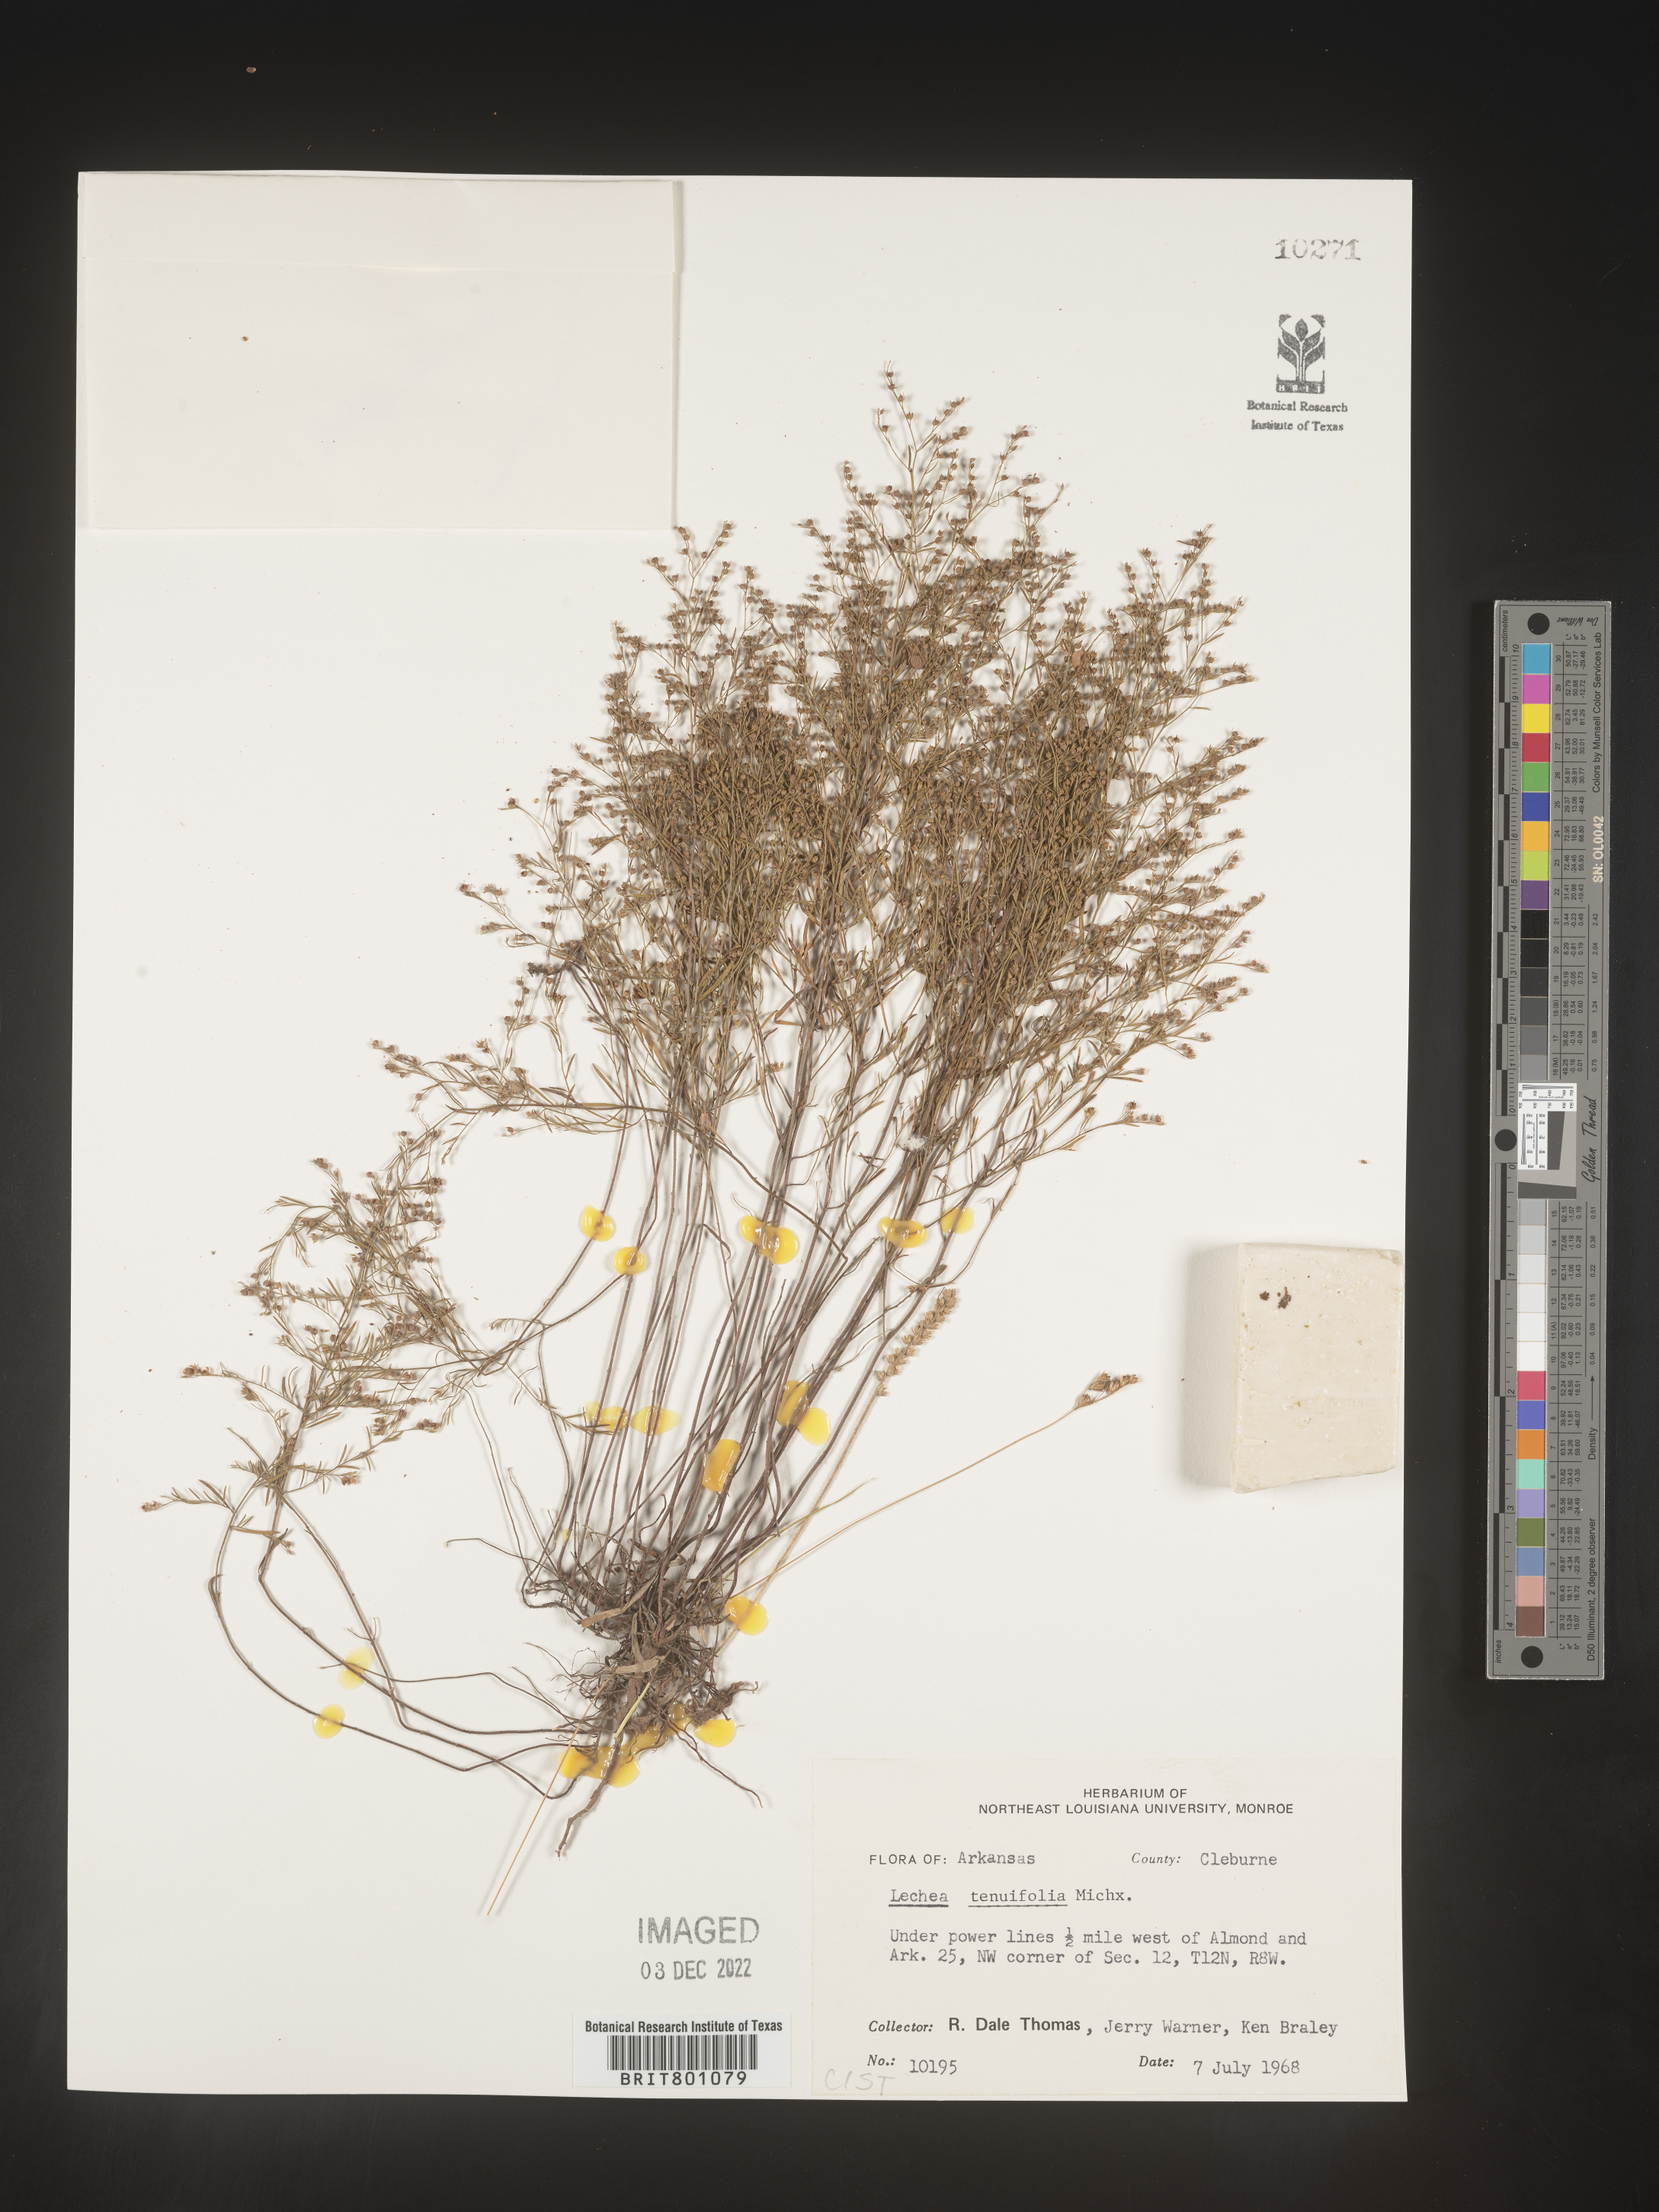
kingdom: Plantae
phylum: Tracheophyta
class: Magnoliopsida
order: Malvales
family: Cistaceae
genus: Lechea
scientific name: Lechea tenuifolia
